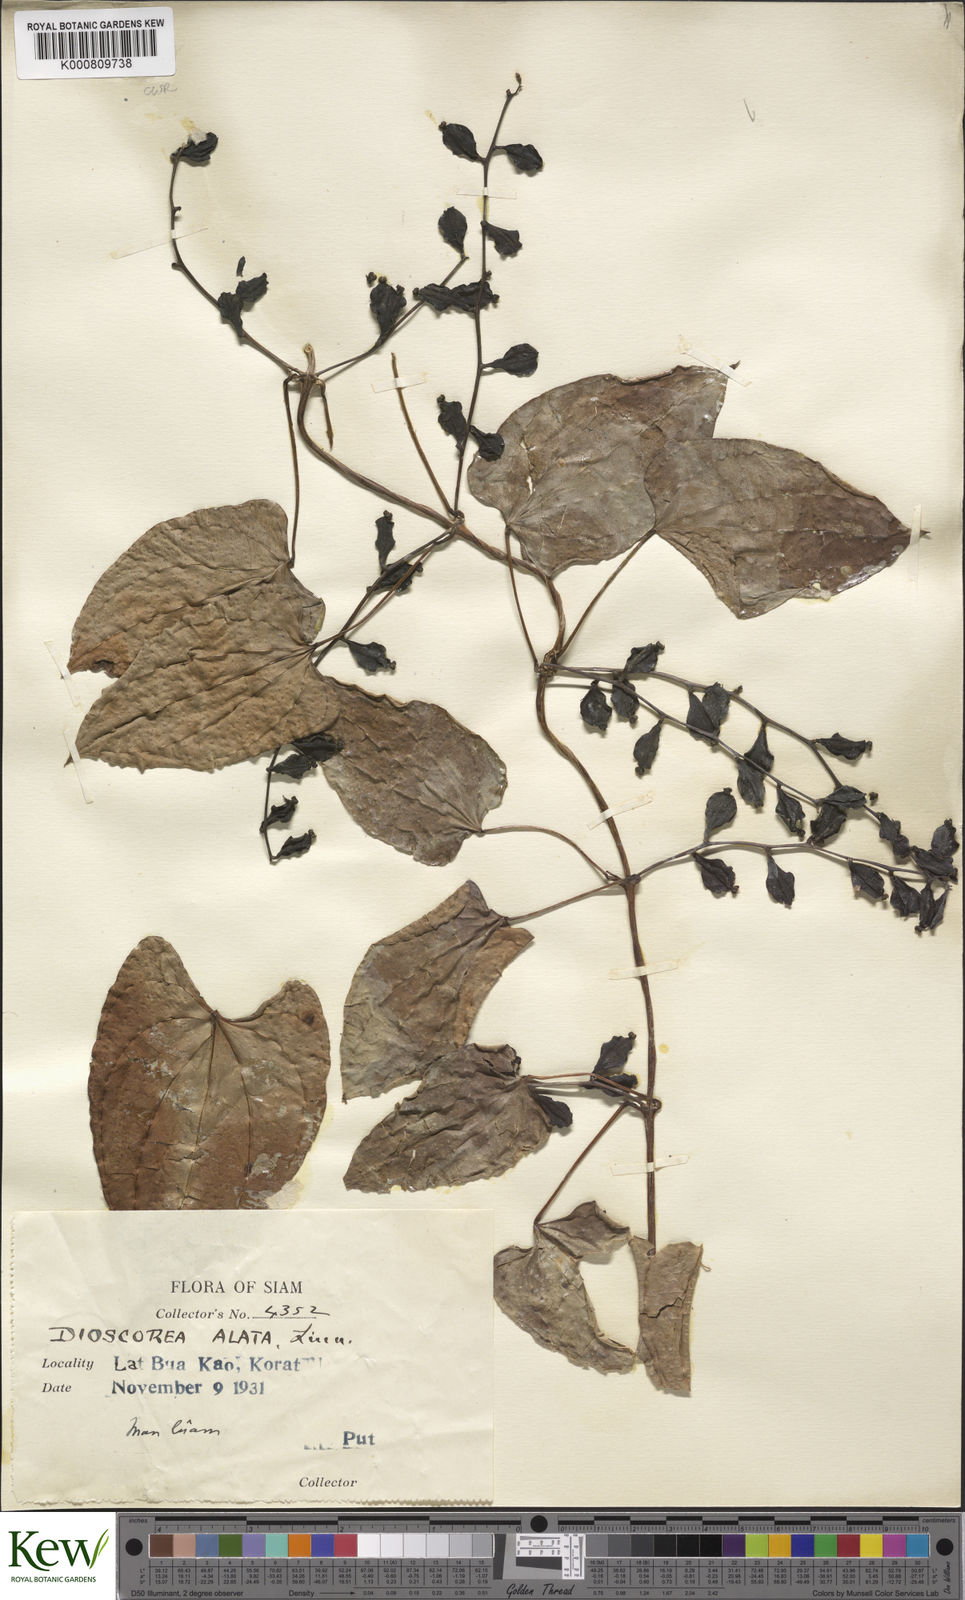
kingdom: Plantae
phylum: Tracheophyta
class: Liliopsida
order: Dioscoreales
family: Dioscoreaceae
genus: Dioscorea
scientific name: Dioscorea alata
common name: Water yam
